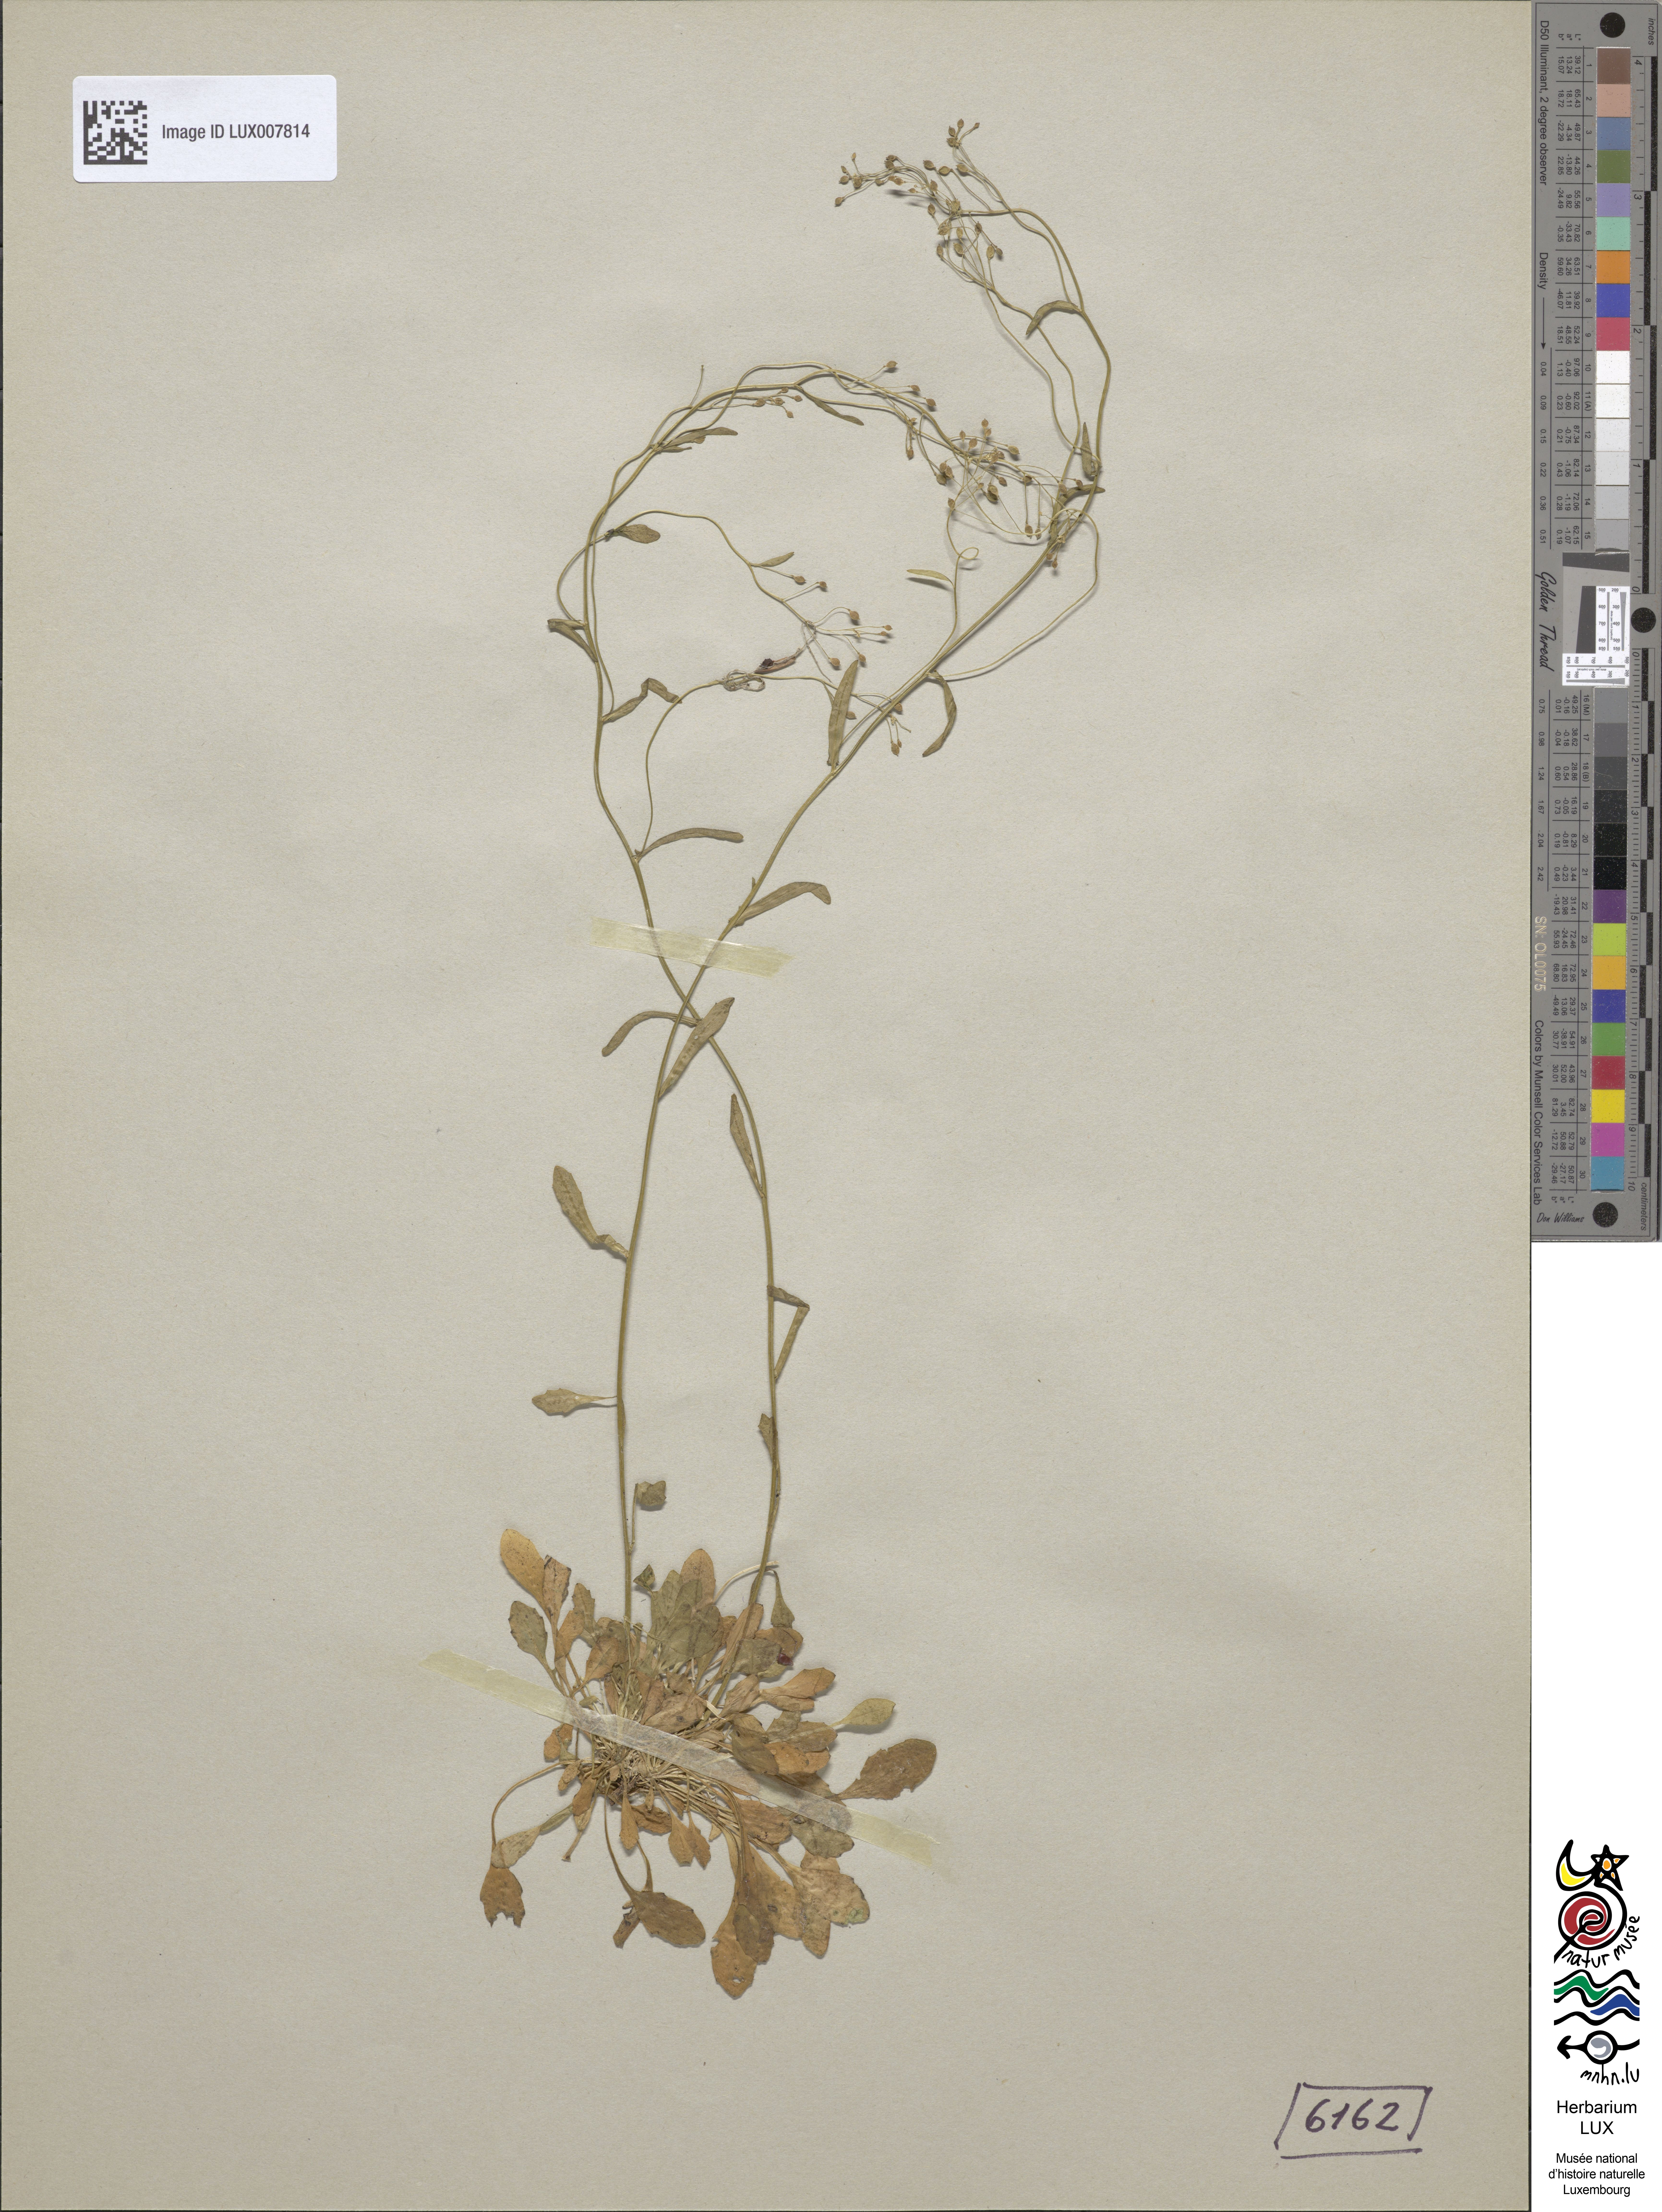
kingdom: Plantae
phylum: Tracheophyta
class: Magnoliopsida
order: Brassicales
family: Brassicaceae
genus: Kernera
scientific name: Kernera saxatilis
